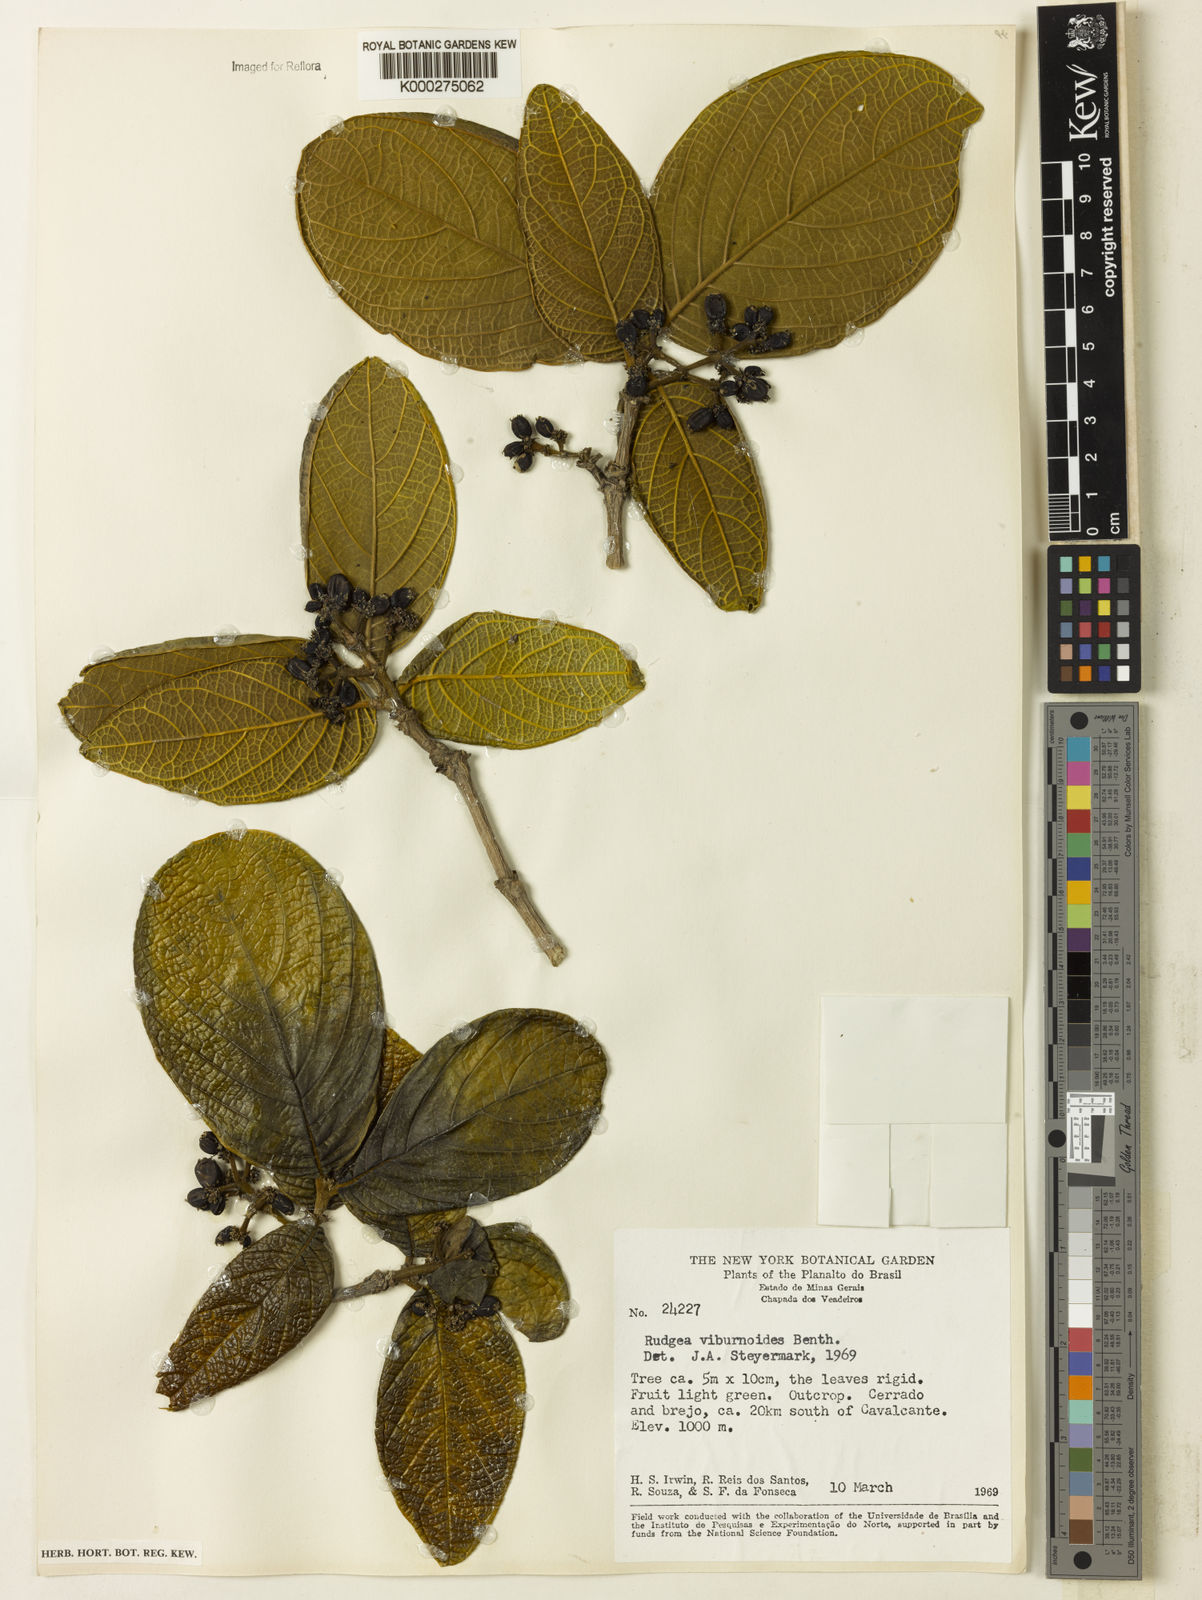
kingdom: Plantae
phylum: Tracheophyta
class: Magnoliopsida
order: Gentianales
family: Rubiaceae
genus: Rudgea
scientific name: Rudgea viburnoides
